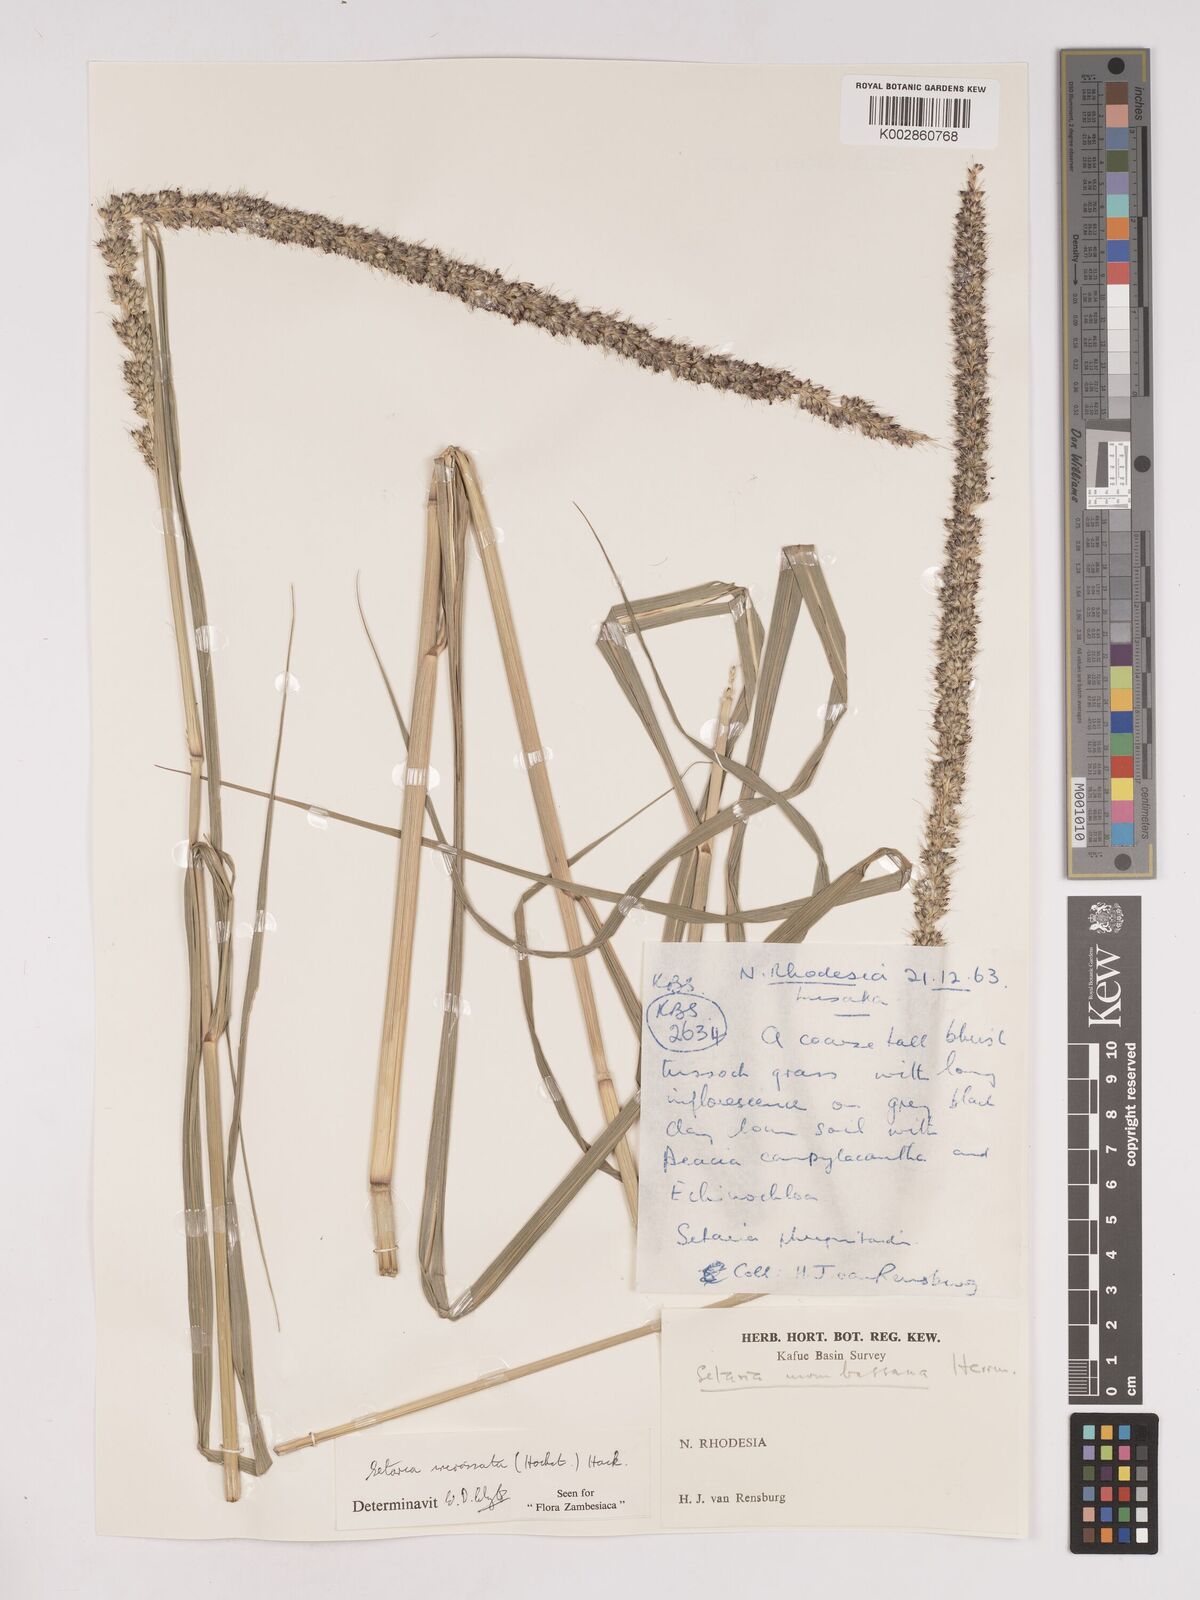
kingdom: Plantae
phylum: Tracheophyta
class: Liliopsida
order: Poales
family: Poaceae
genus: Setaria
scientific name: Setaria incrassata
